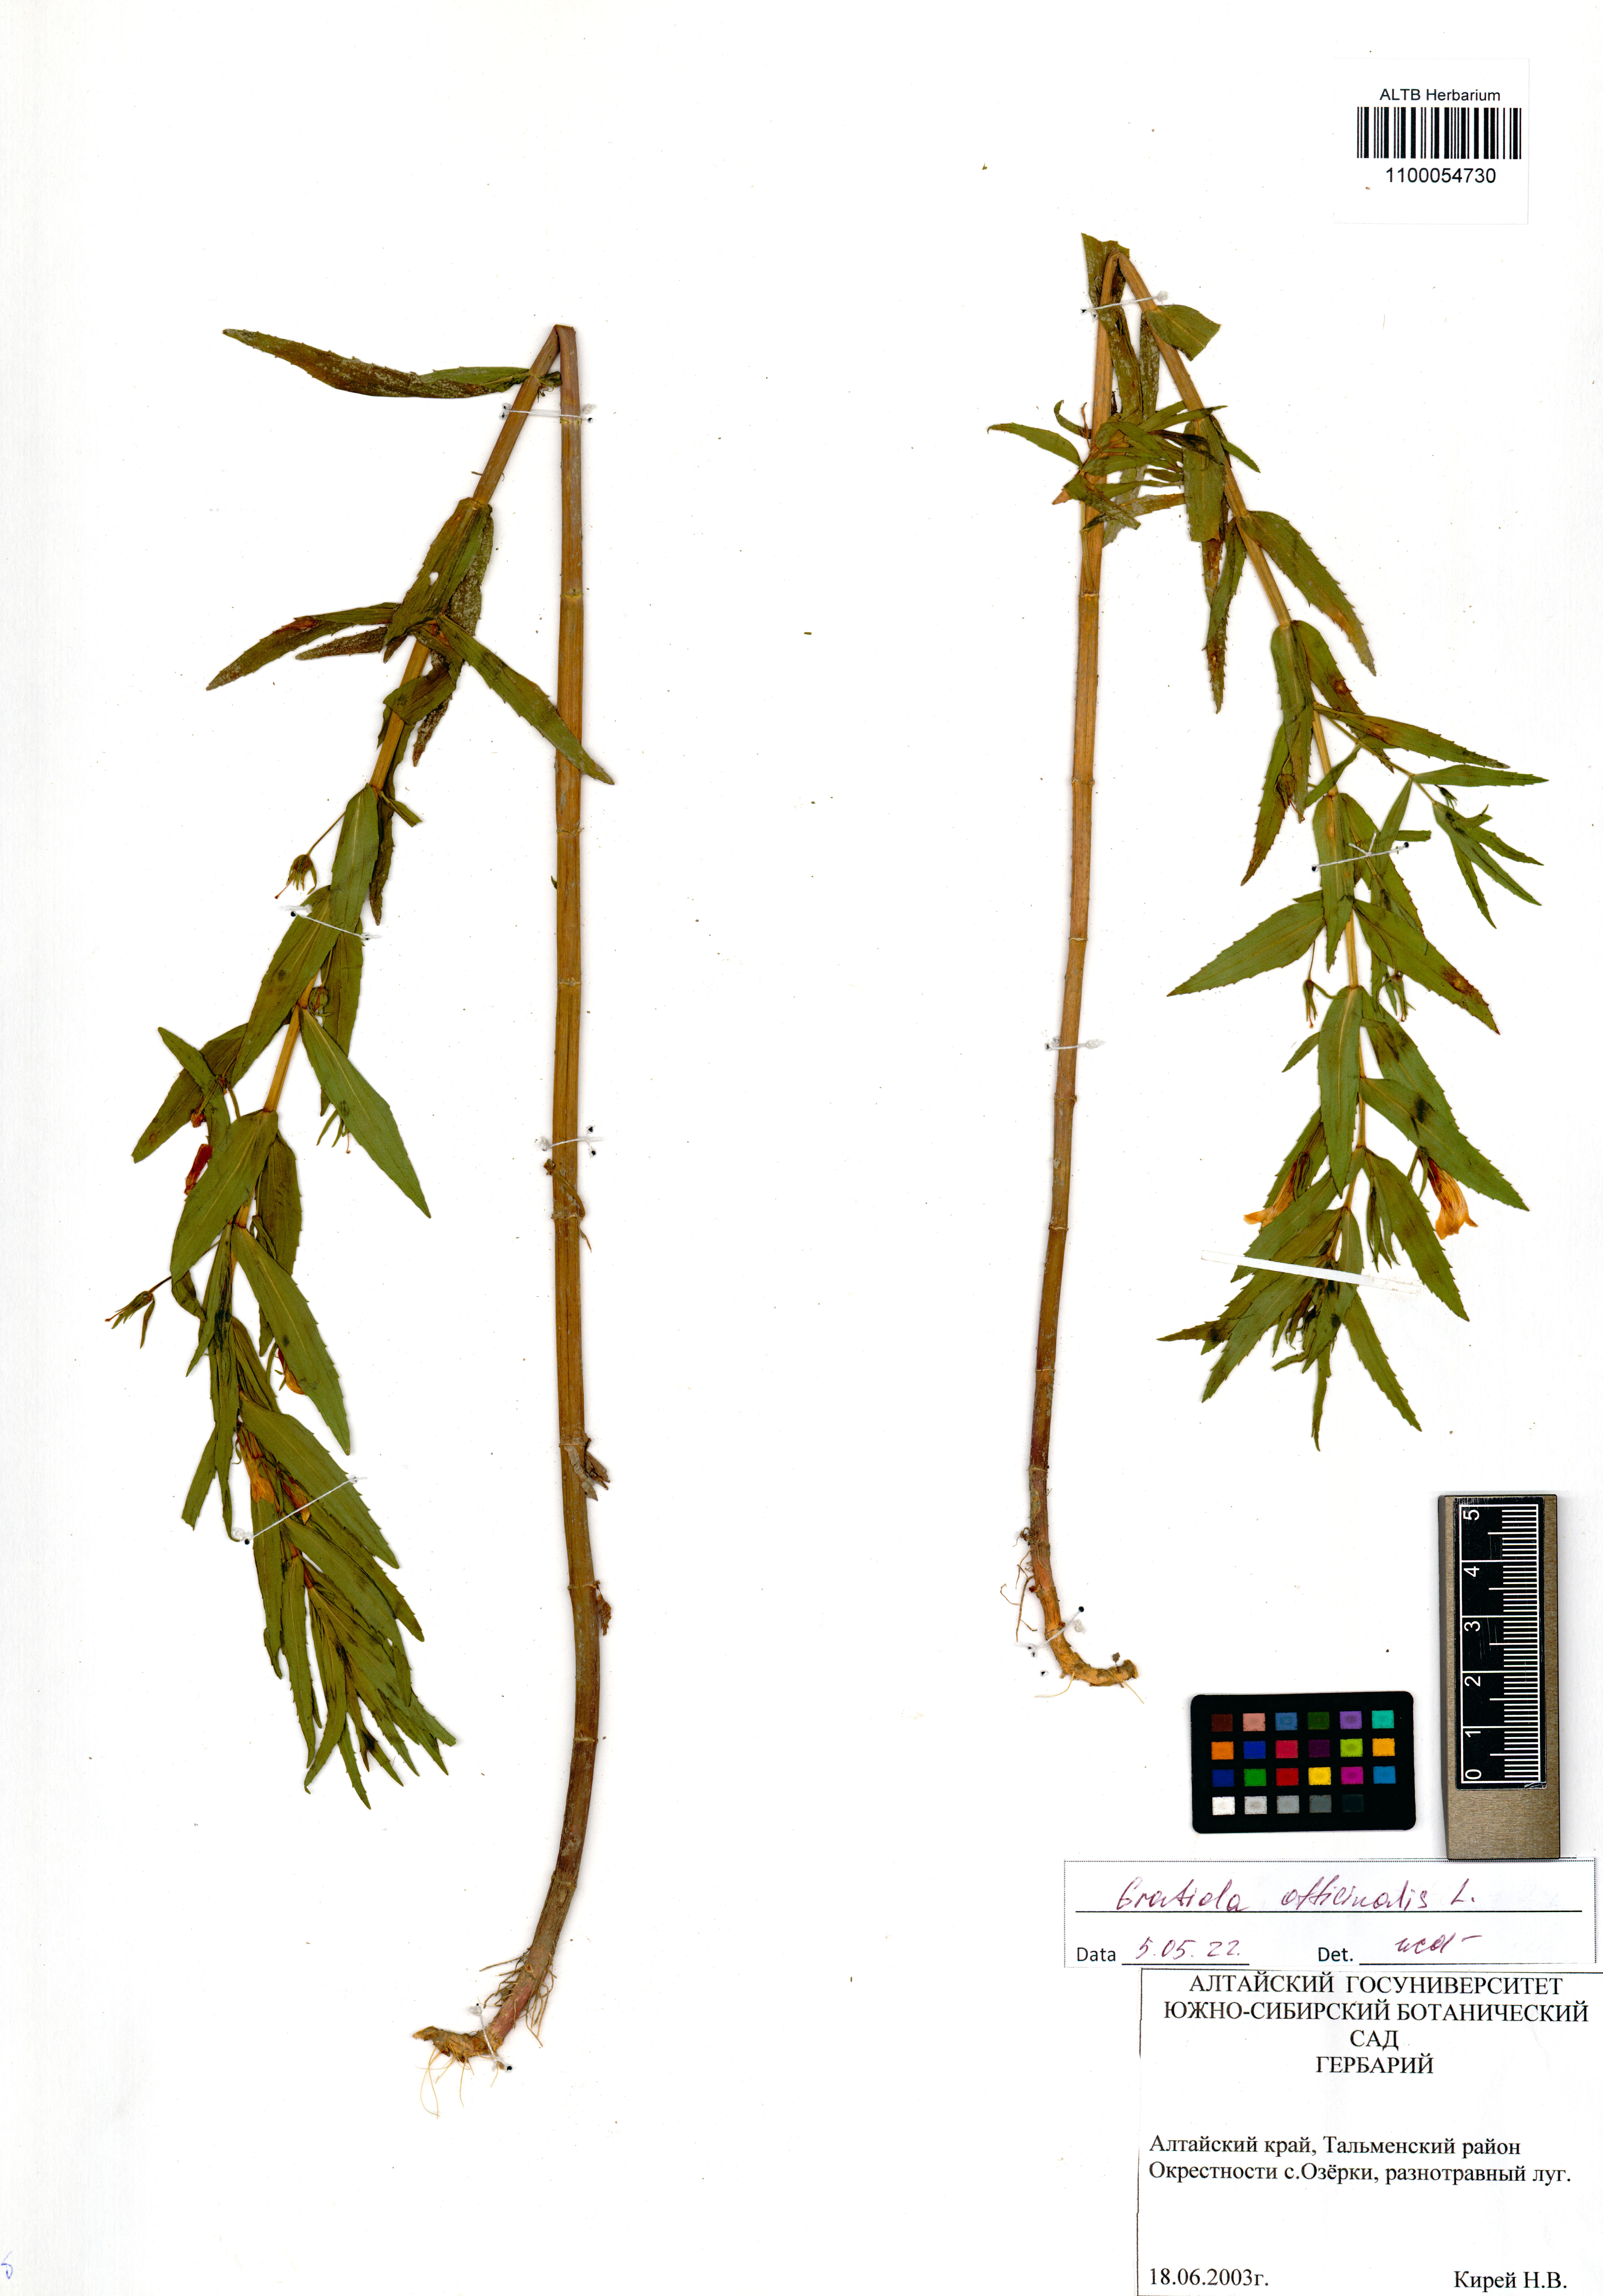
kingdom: Plantae
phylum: Tracheophyta
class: Magnoliopsida
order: Lamiales
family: Plantaginaceae
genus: Gratiola
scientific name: Gratiola officinalis
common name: Gratiola
